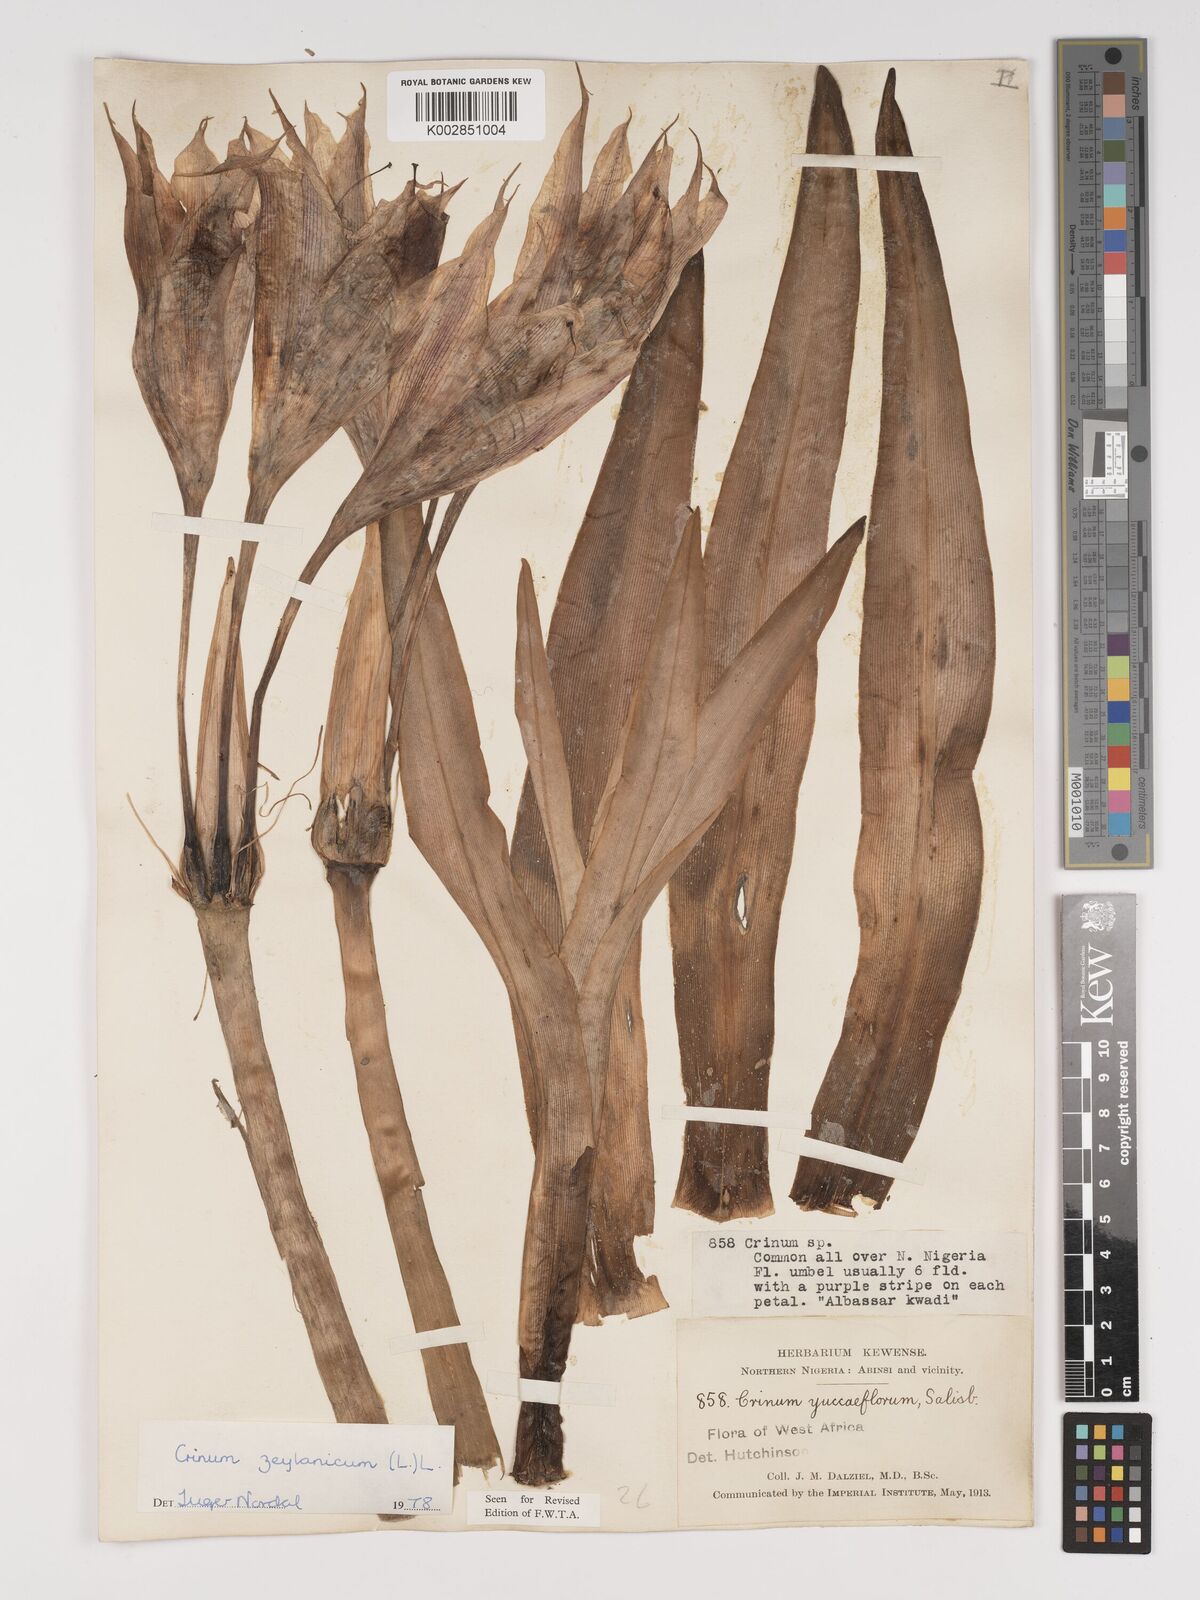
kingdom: Plantae
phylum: Tracheophyta
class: Liliopsida
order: Asparagales
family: Amaryllidaceae
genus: Crinum
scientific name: Crinum ornatum
